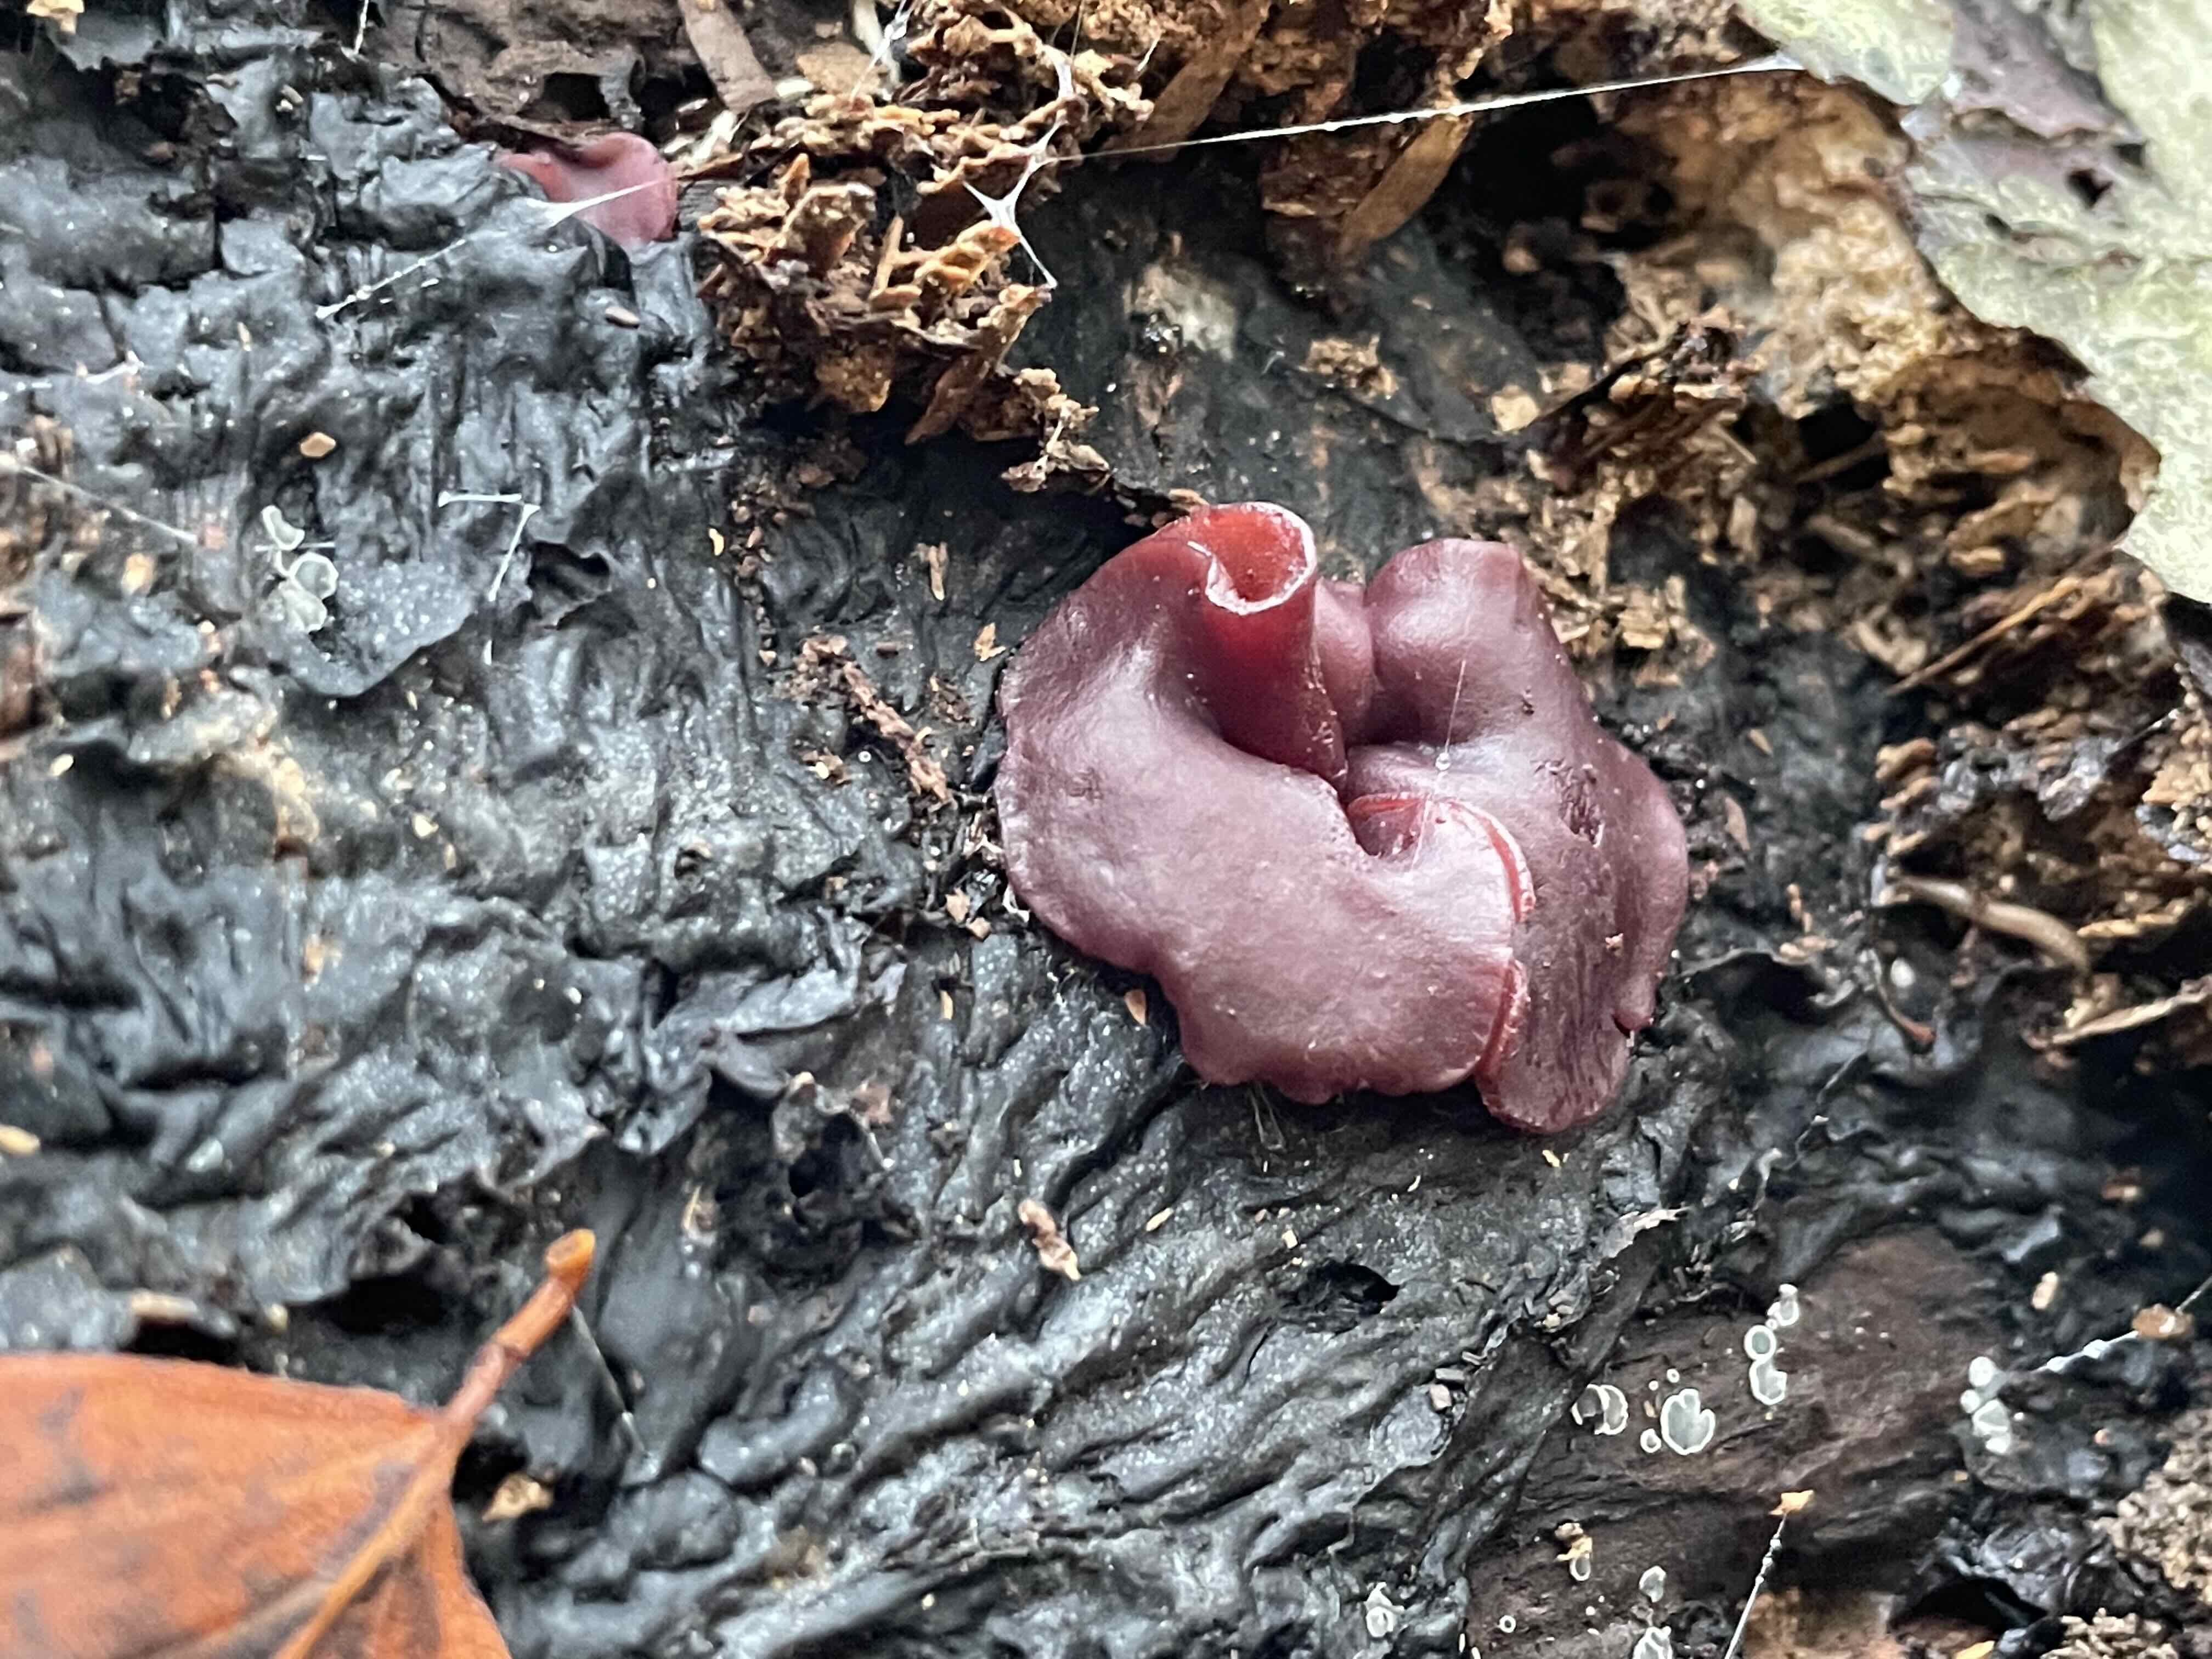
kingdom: Fungi
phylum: Ascomycota
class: Leotiomycetes
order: Helotiales
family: Gelatinodiscaceae
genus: Ascocoryne
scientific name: Ascocoryne cylichnium
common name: stor sejskive
